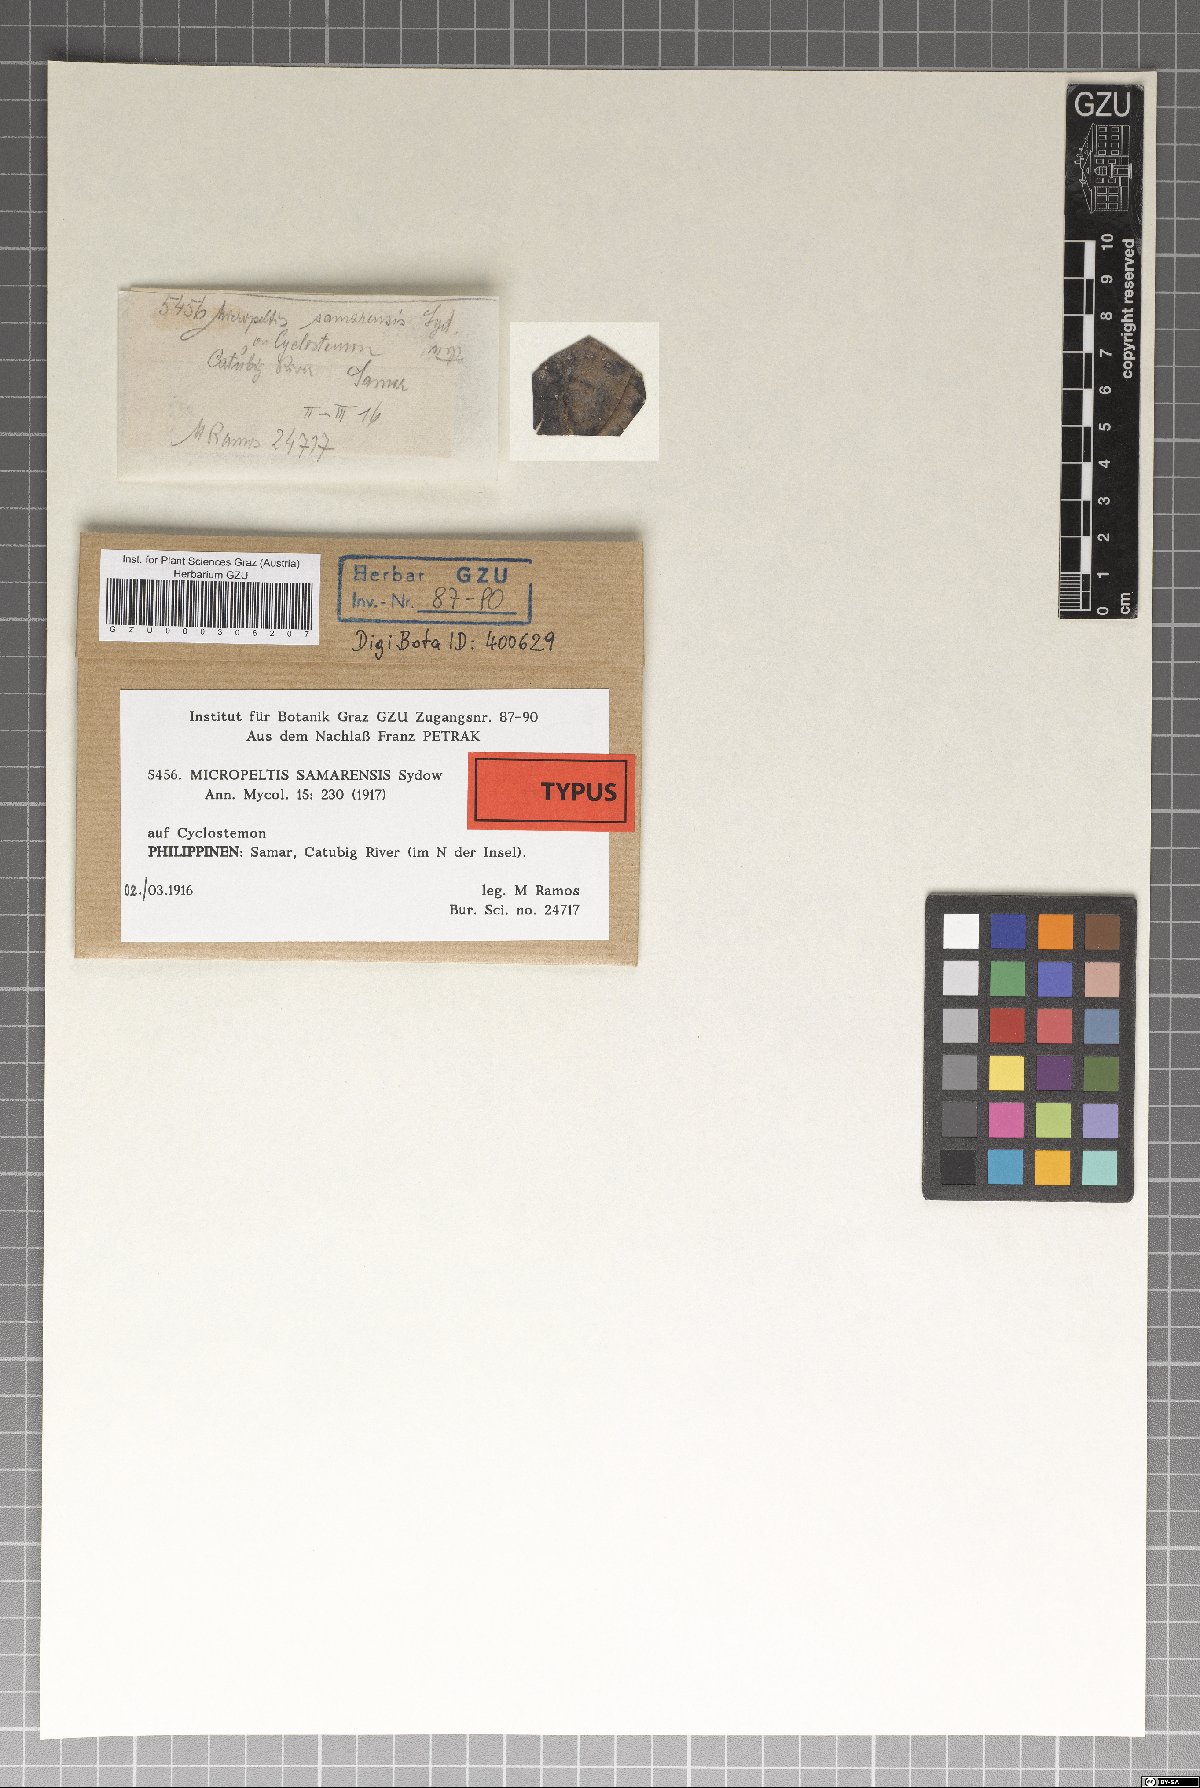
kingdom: Fungi
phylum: Ascomycota
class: Dothideomycetes
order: Microthyriales
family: Micropeltidaceae
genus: Micropeltis
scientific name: Micropeltis samarensis
